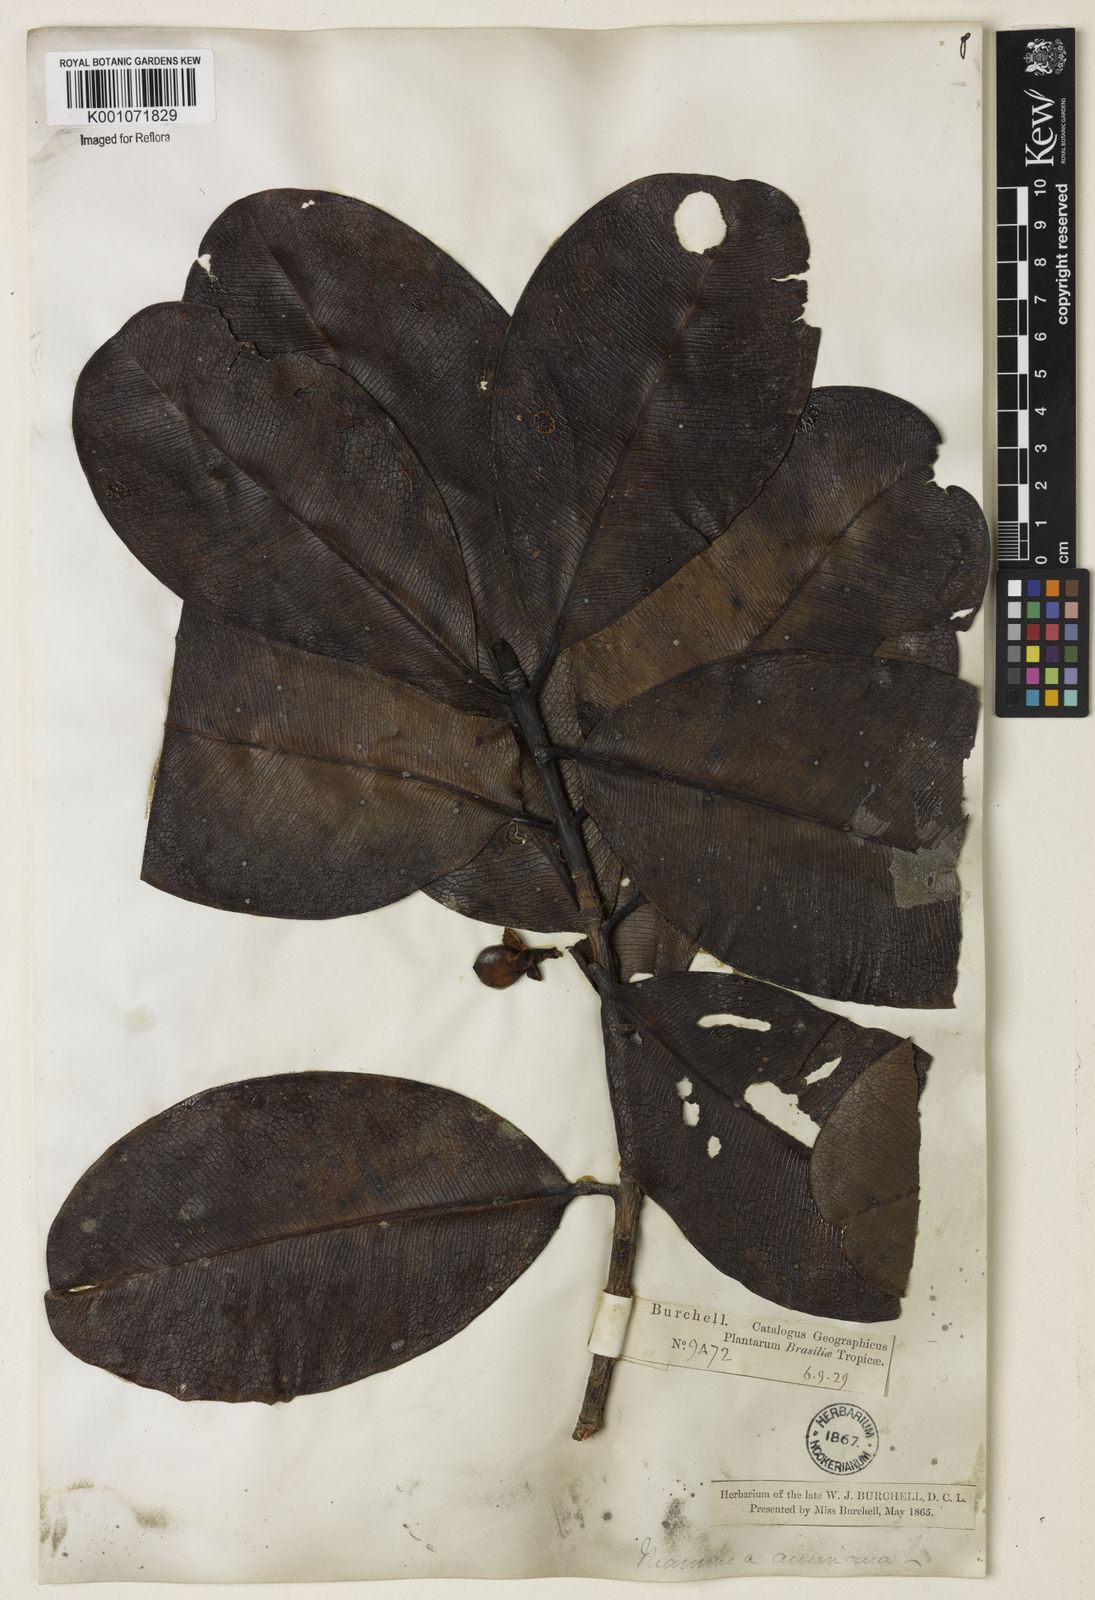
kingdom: Plantae
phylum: Tracheophyta
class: Magnoliopsida
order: Malpighiales
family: Calophyllaceae
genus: Mammea
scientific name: Mammea americana
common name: Mamey
